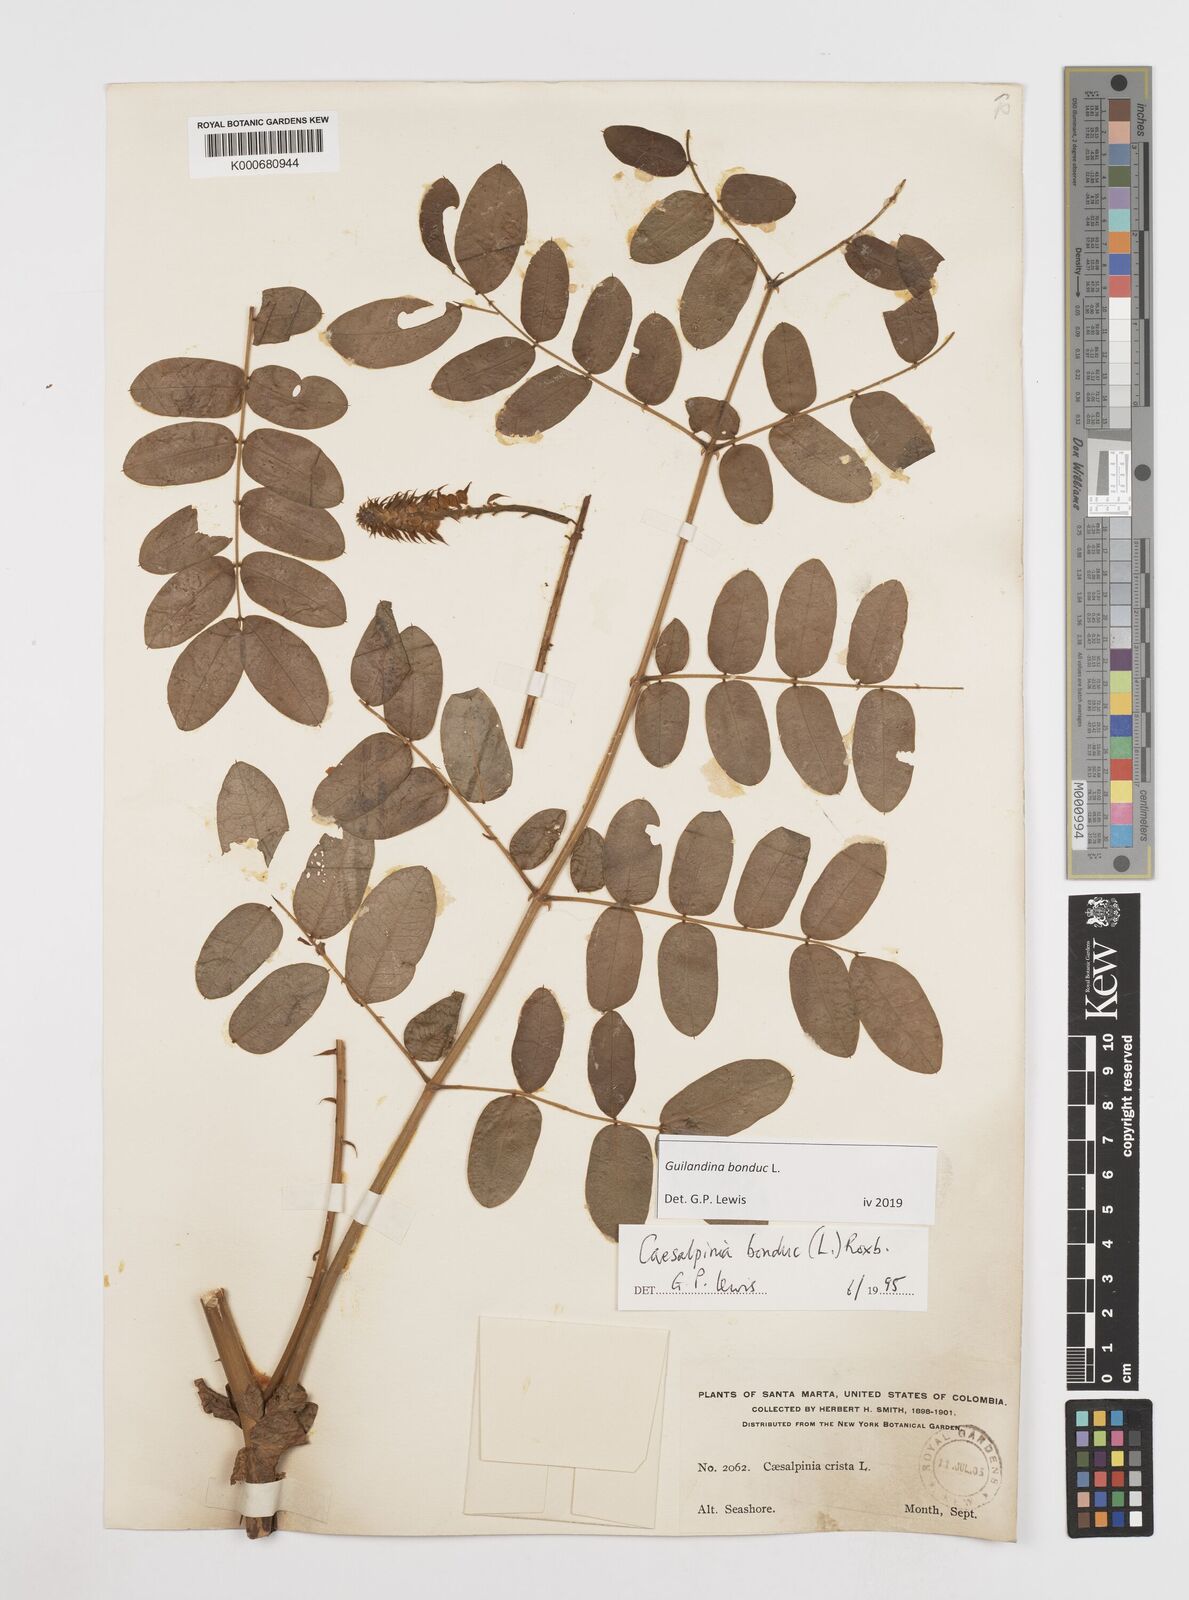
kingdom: Plantae
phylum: Tracheophyta
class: Magnoliopsida
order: Fabales
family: Fabaceae
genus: Guilandina
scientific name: Guilandina bonduc
